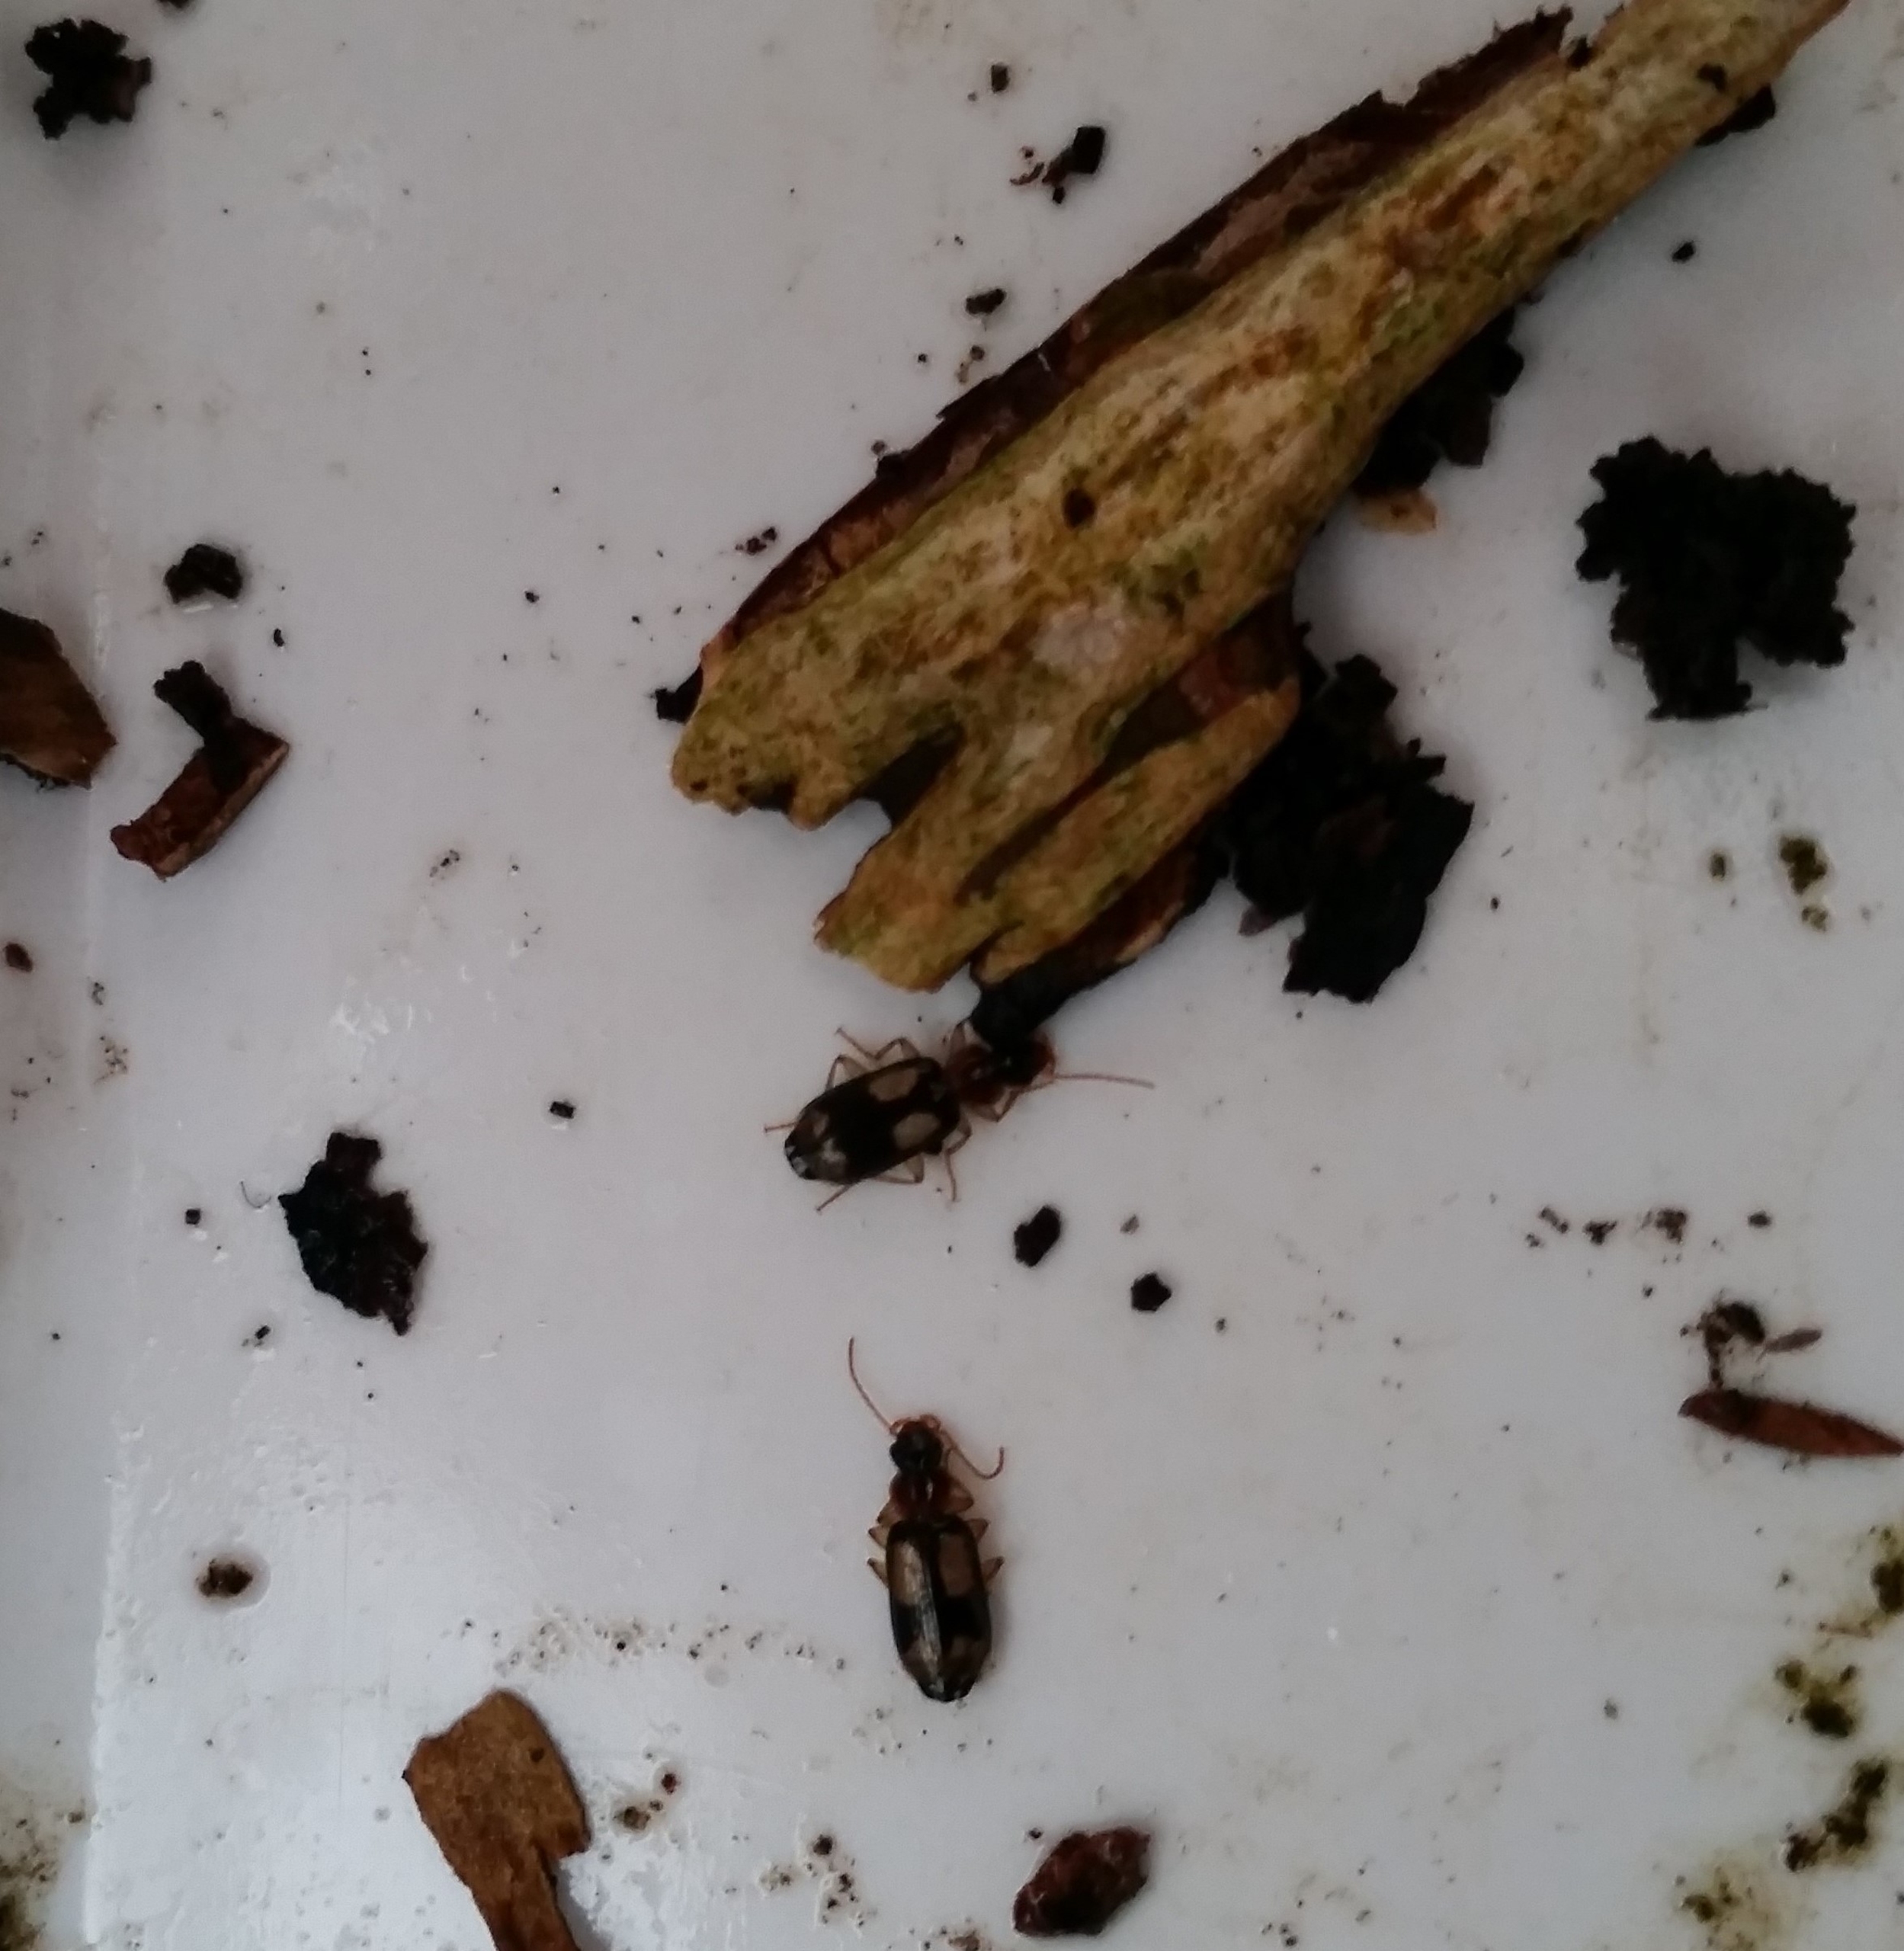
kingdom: Animalia
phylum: Arthropoda
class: Insecta
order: Coleoptera
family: Carabidae
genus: Dromius
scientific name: Dromius quadrimaculatus
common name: Fireplettet barkløber
